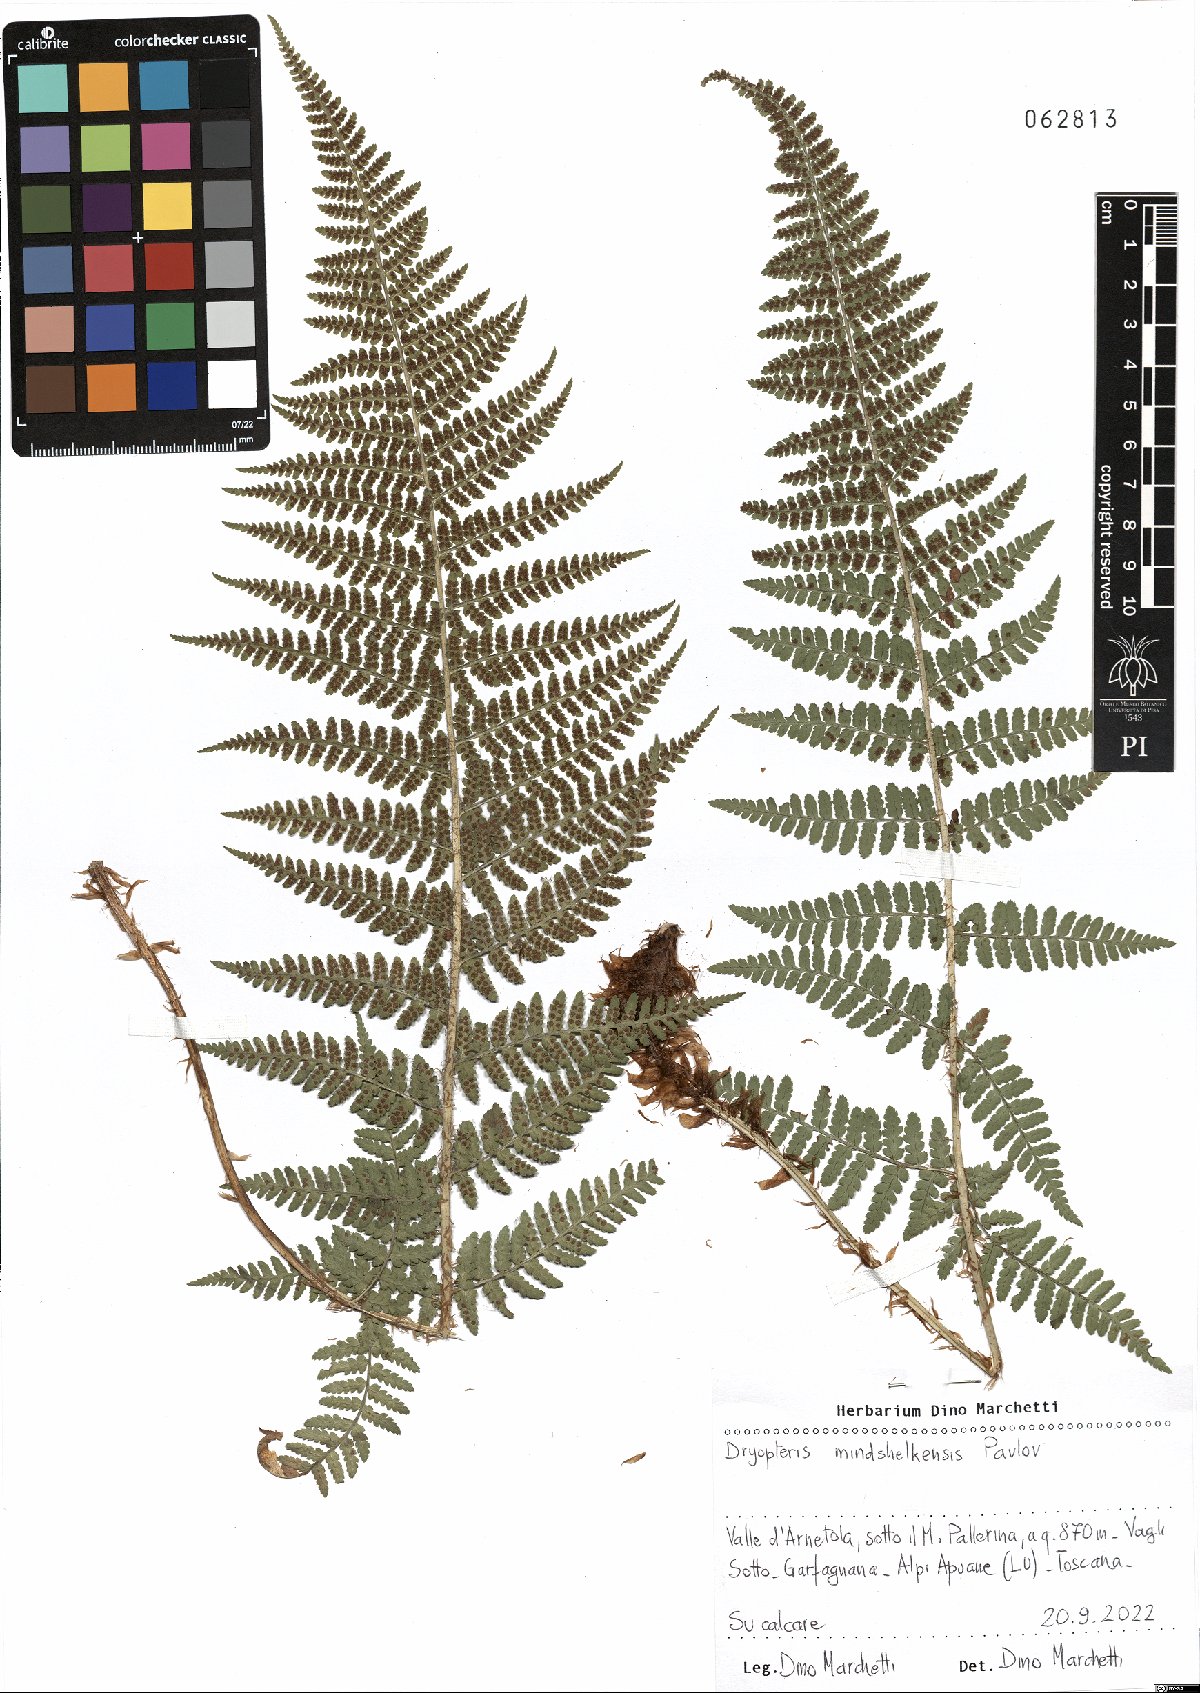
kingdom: Plantae
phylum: Tracheophyta
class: Polypodiopsida
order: Polypodiales
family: Dryopteridaceae
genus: Dryopteris
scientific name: Dryopteris mindshelkensis
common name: Limestone wood fern
